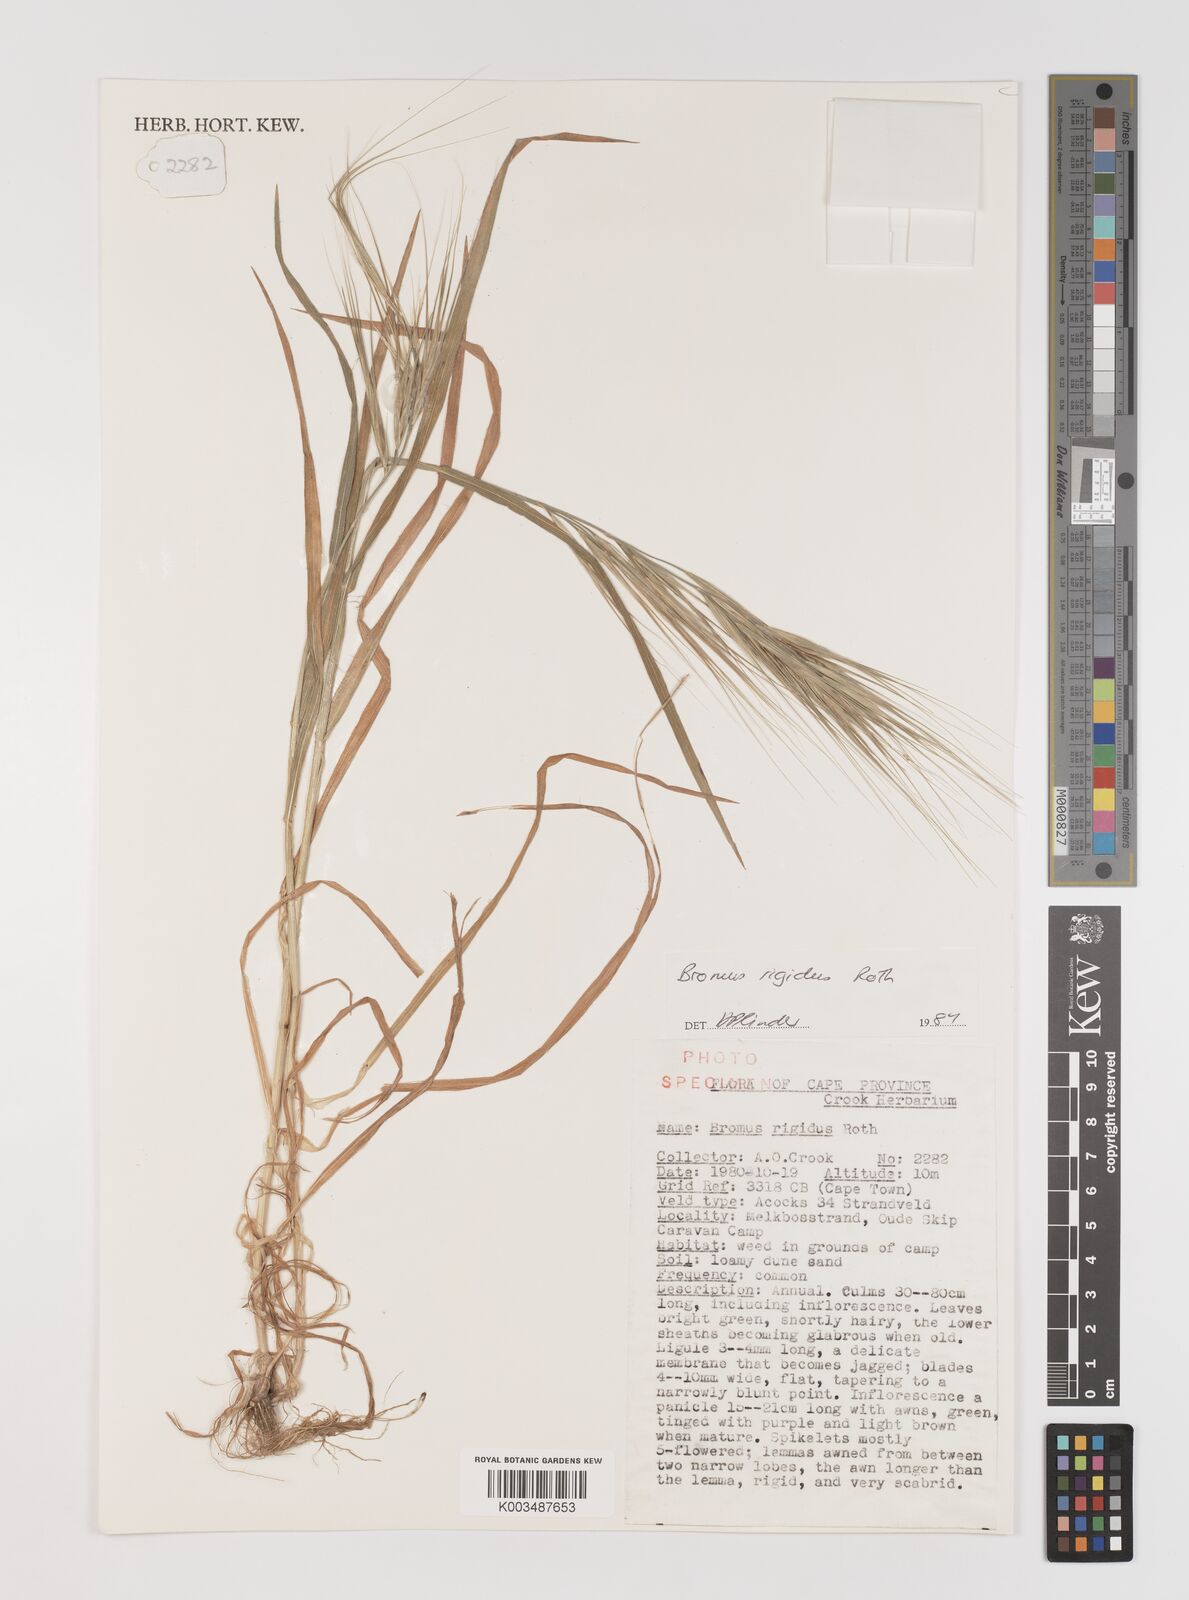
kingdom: Plantae
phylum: Tracheophyta
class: Liliopsida
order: Poales
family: Poaceae
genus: Bromus
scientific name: Bromus diandrus
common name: Ripgut brome
